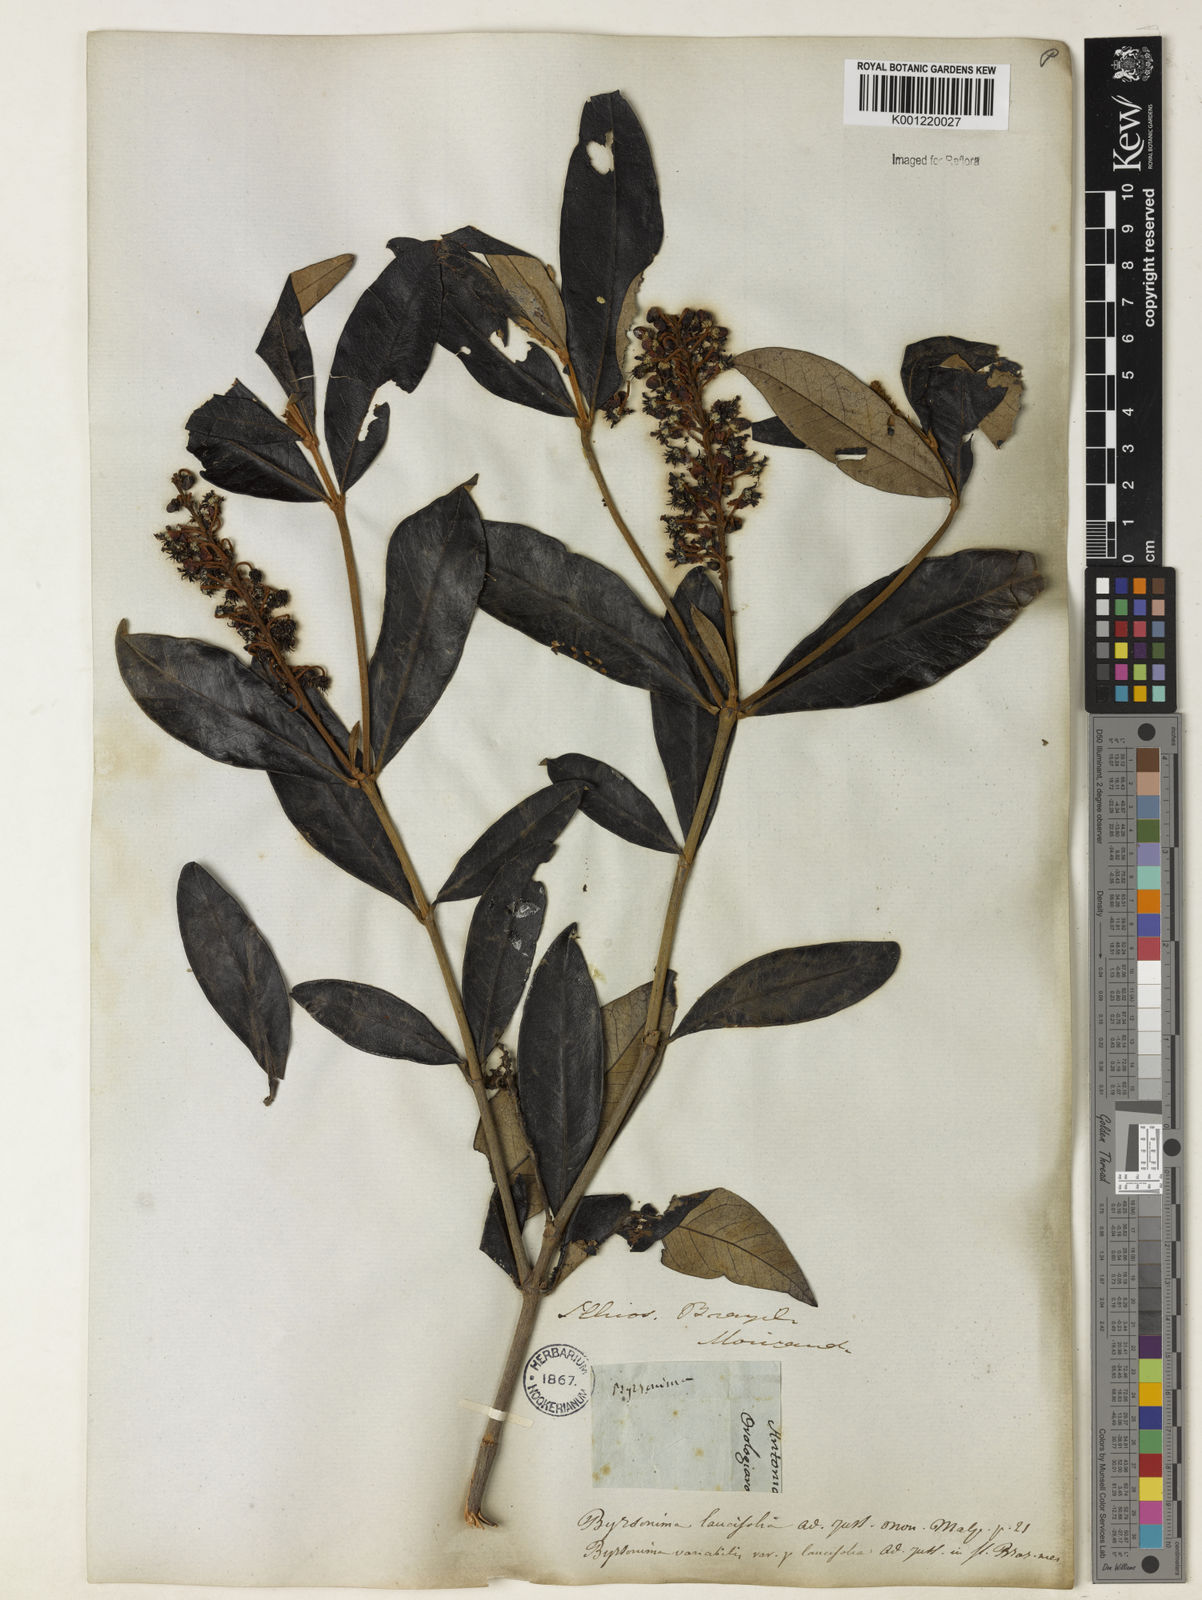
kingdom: Plantae
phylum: Tracheophyta
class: Magnoliopsida
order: Malpighiales
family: Malpighiaceae
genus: Byrsonima
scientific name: Byrsonima lancifolia
